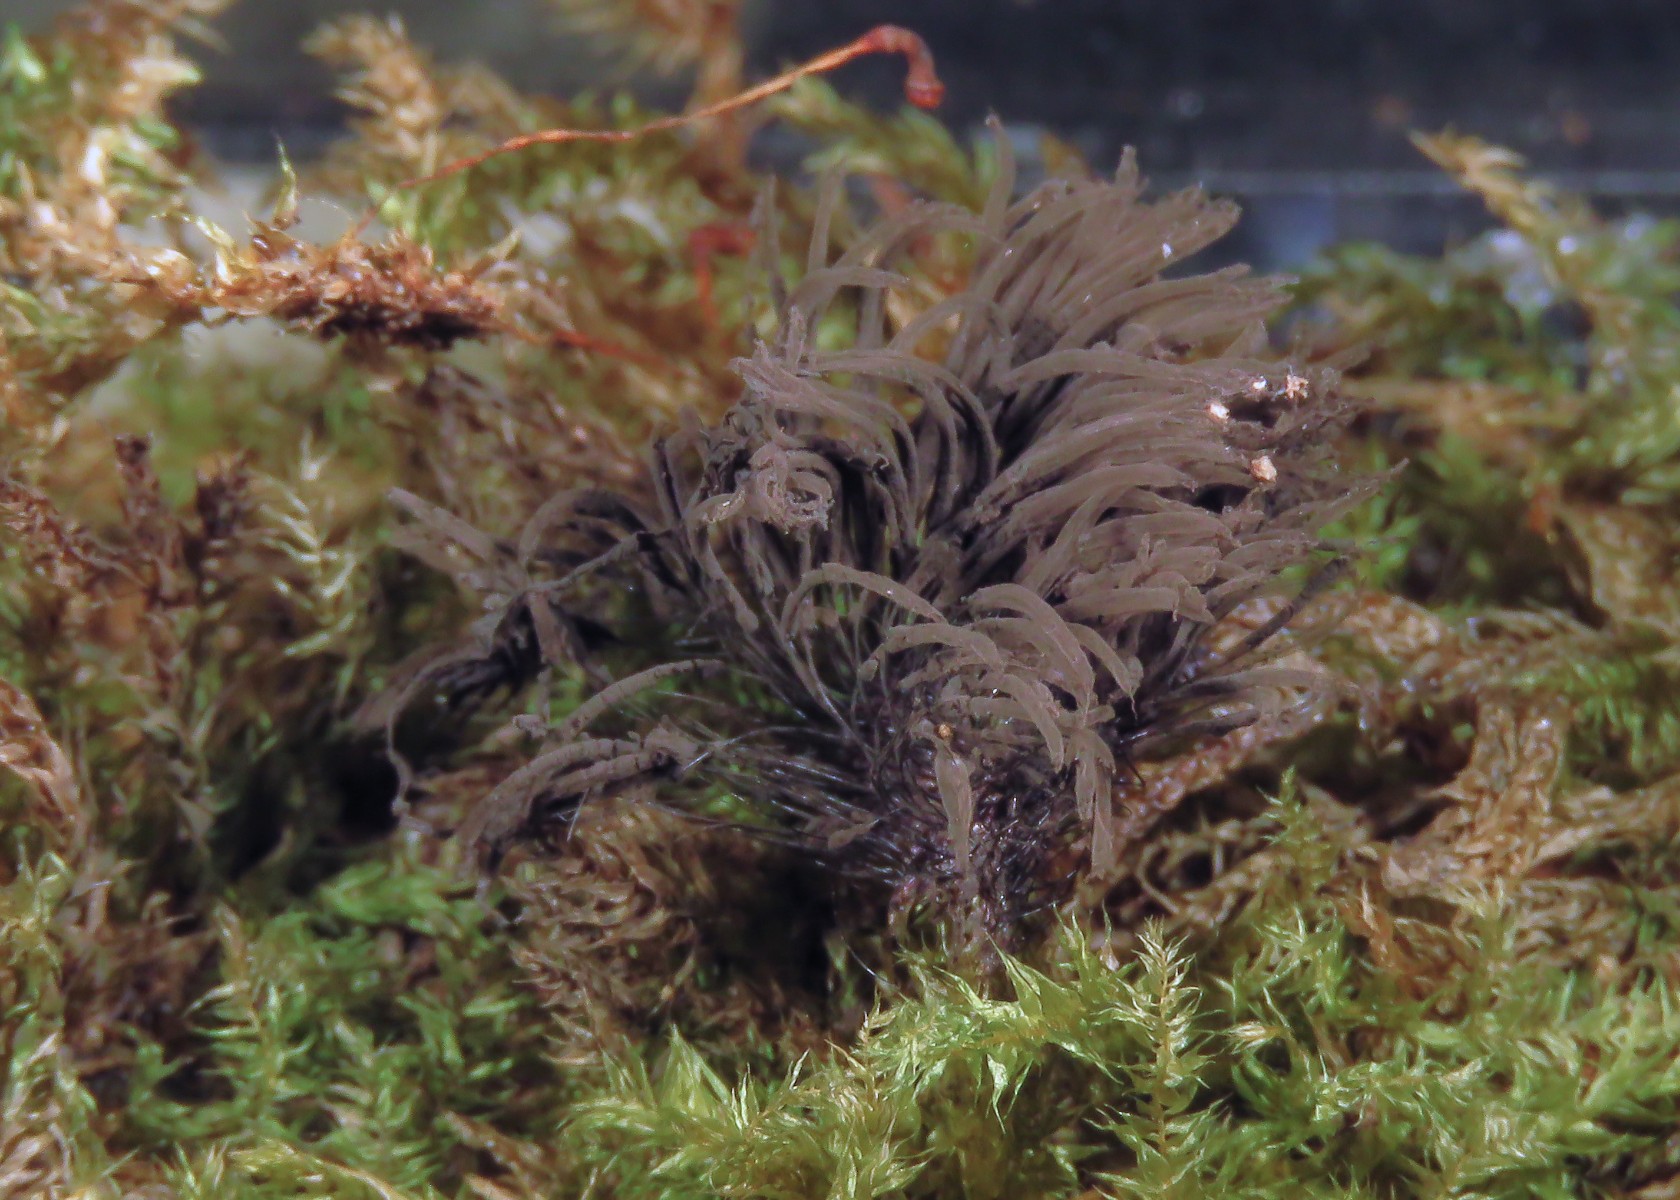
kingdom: Protozoa
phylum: Mycetozoa
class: Myxomycetes
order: Stemonitidales
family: Stemonitidaceae
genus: Stemonitis
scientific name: Stemonitis fusca
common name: sodbrun støvkølle
